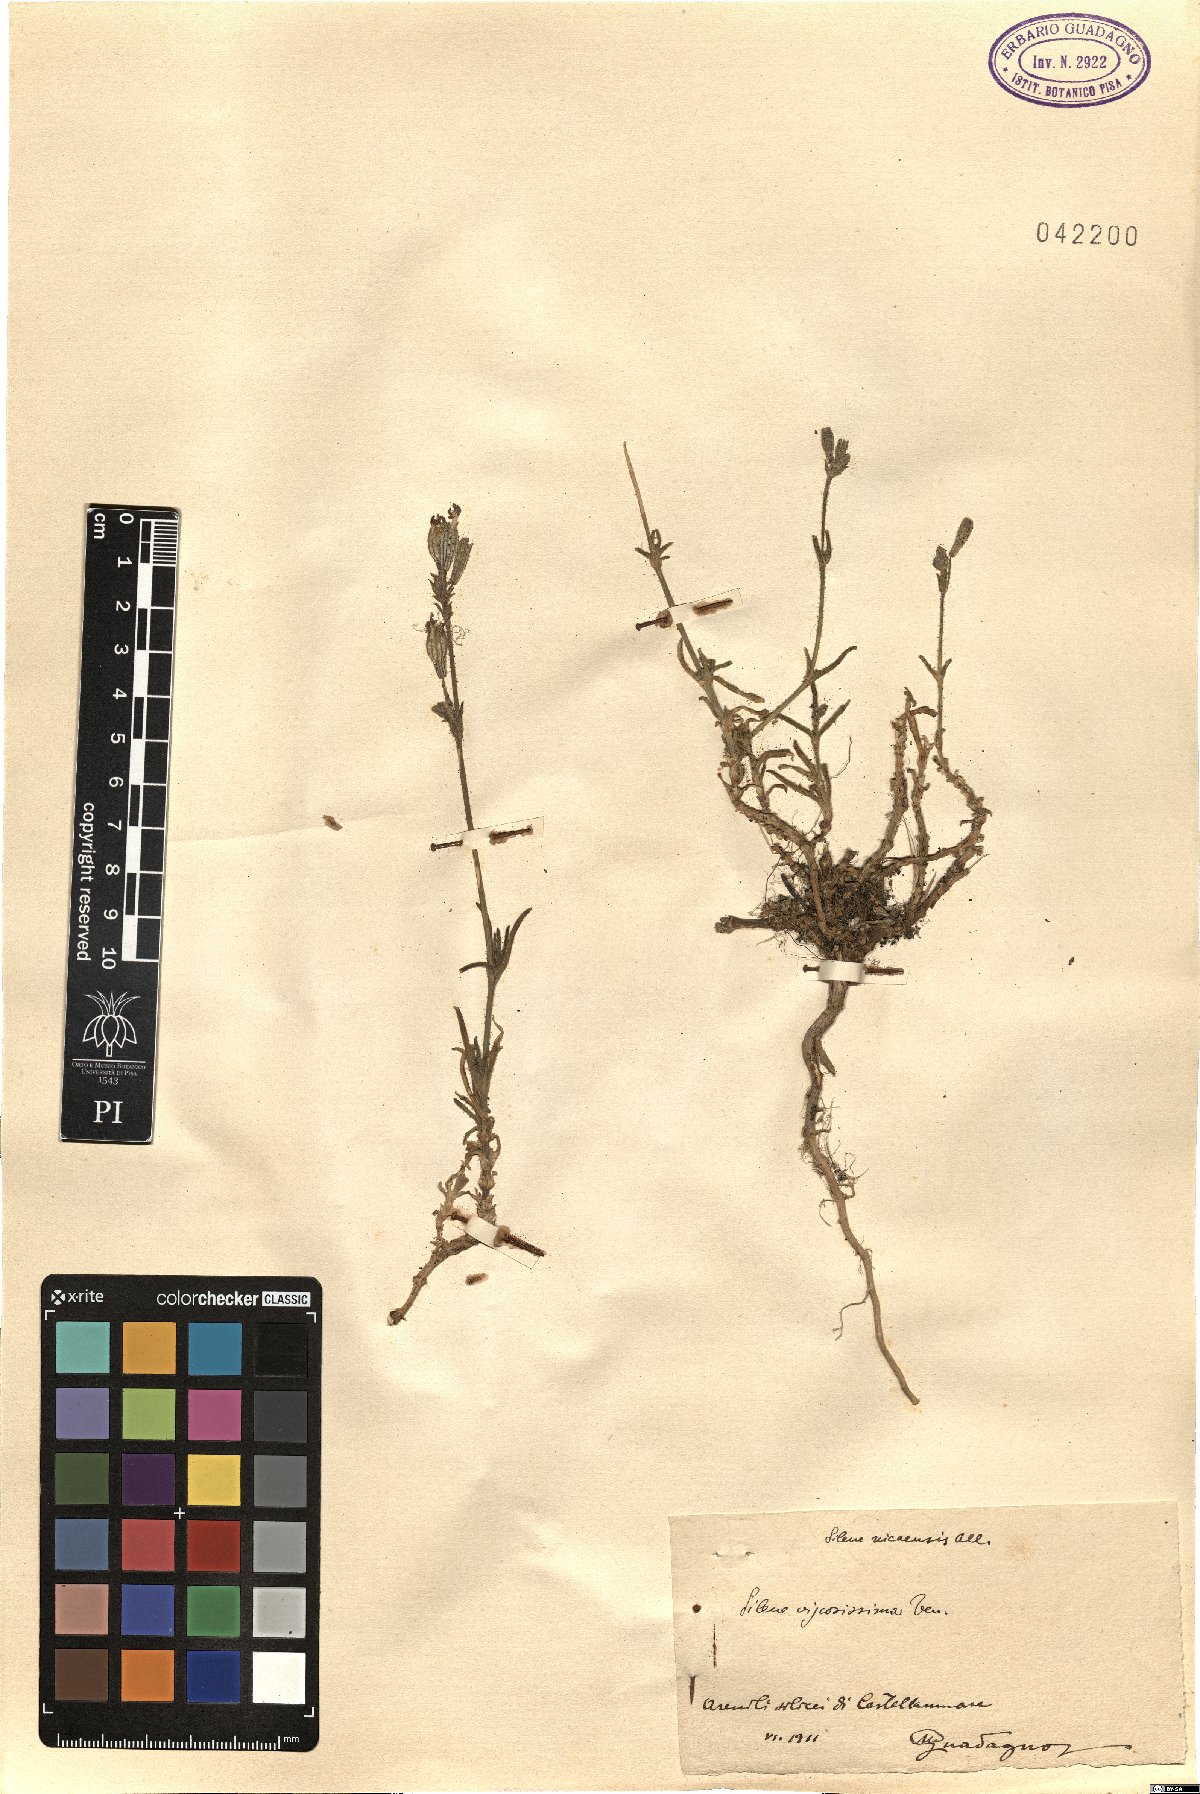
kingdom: Plantae
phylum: Tracheophyta
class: Magnoliopsida
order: Caryophyllales
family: Caryophyllaceae
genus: Silene
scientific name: Silene nicaeensis
